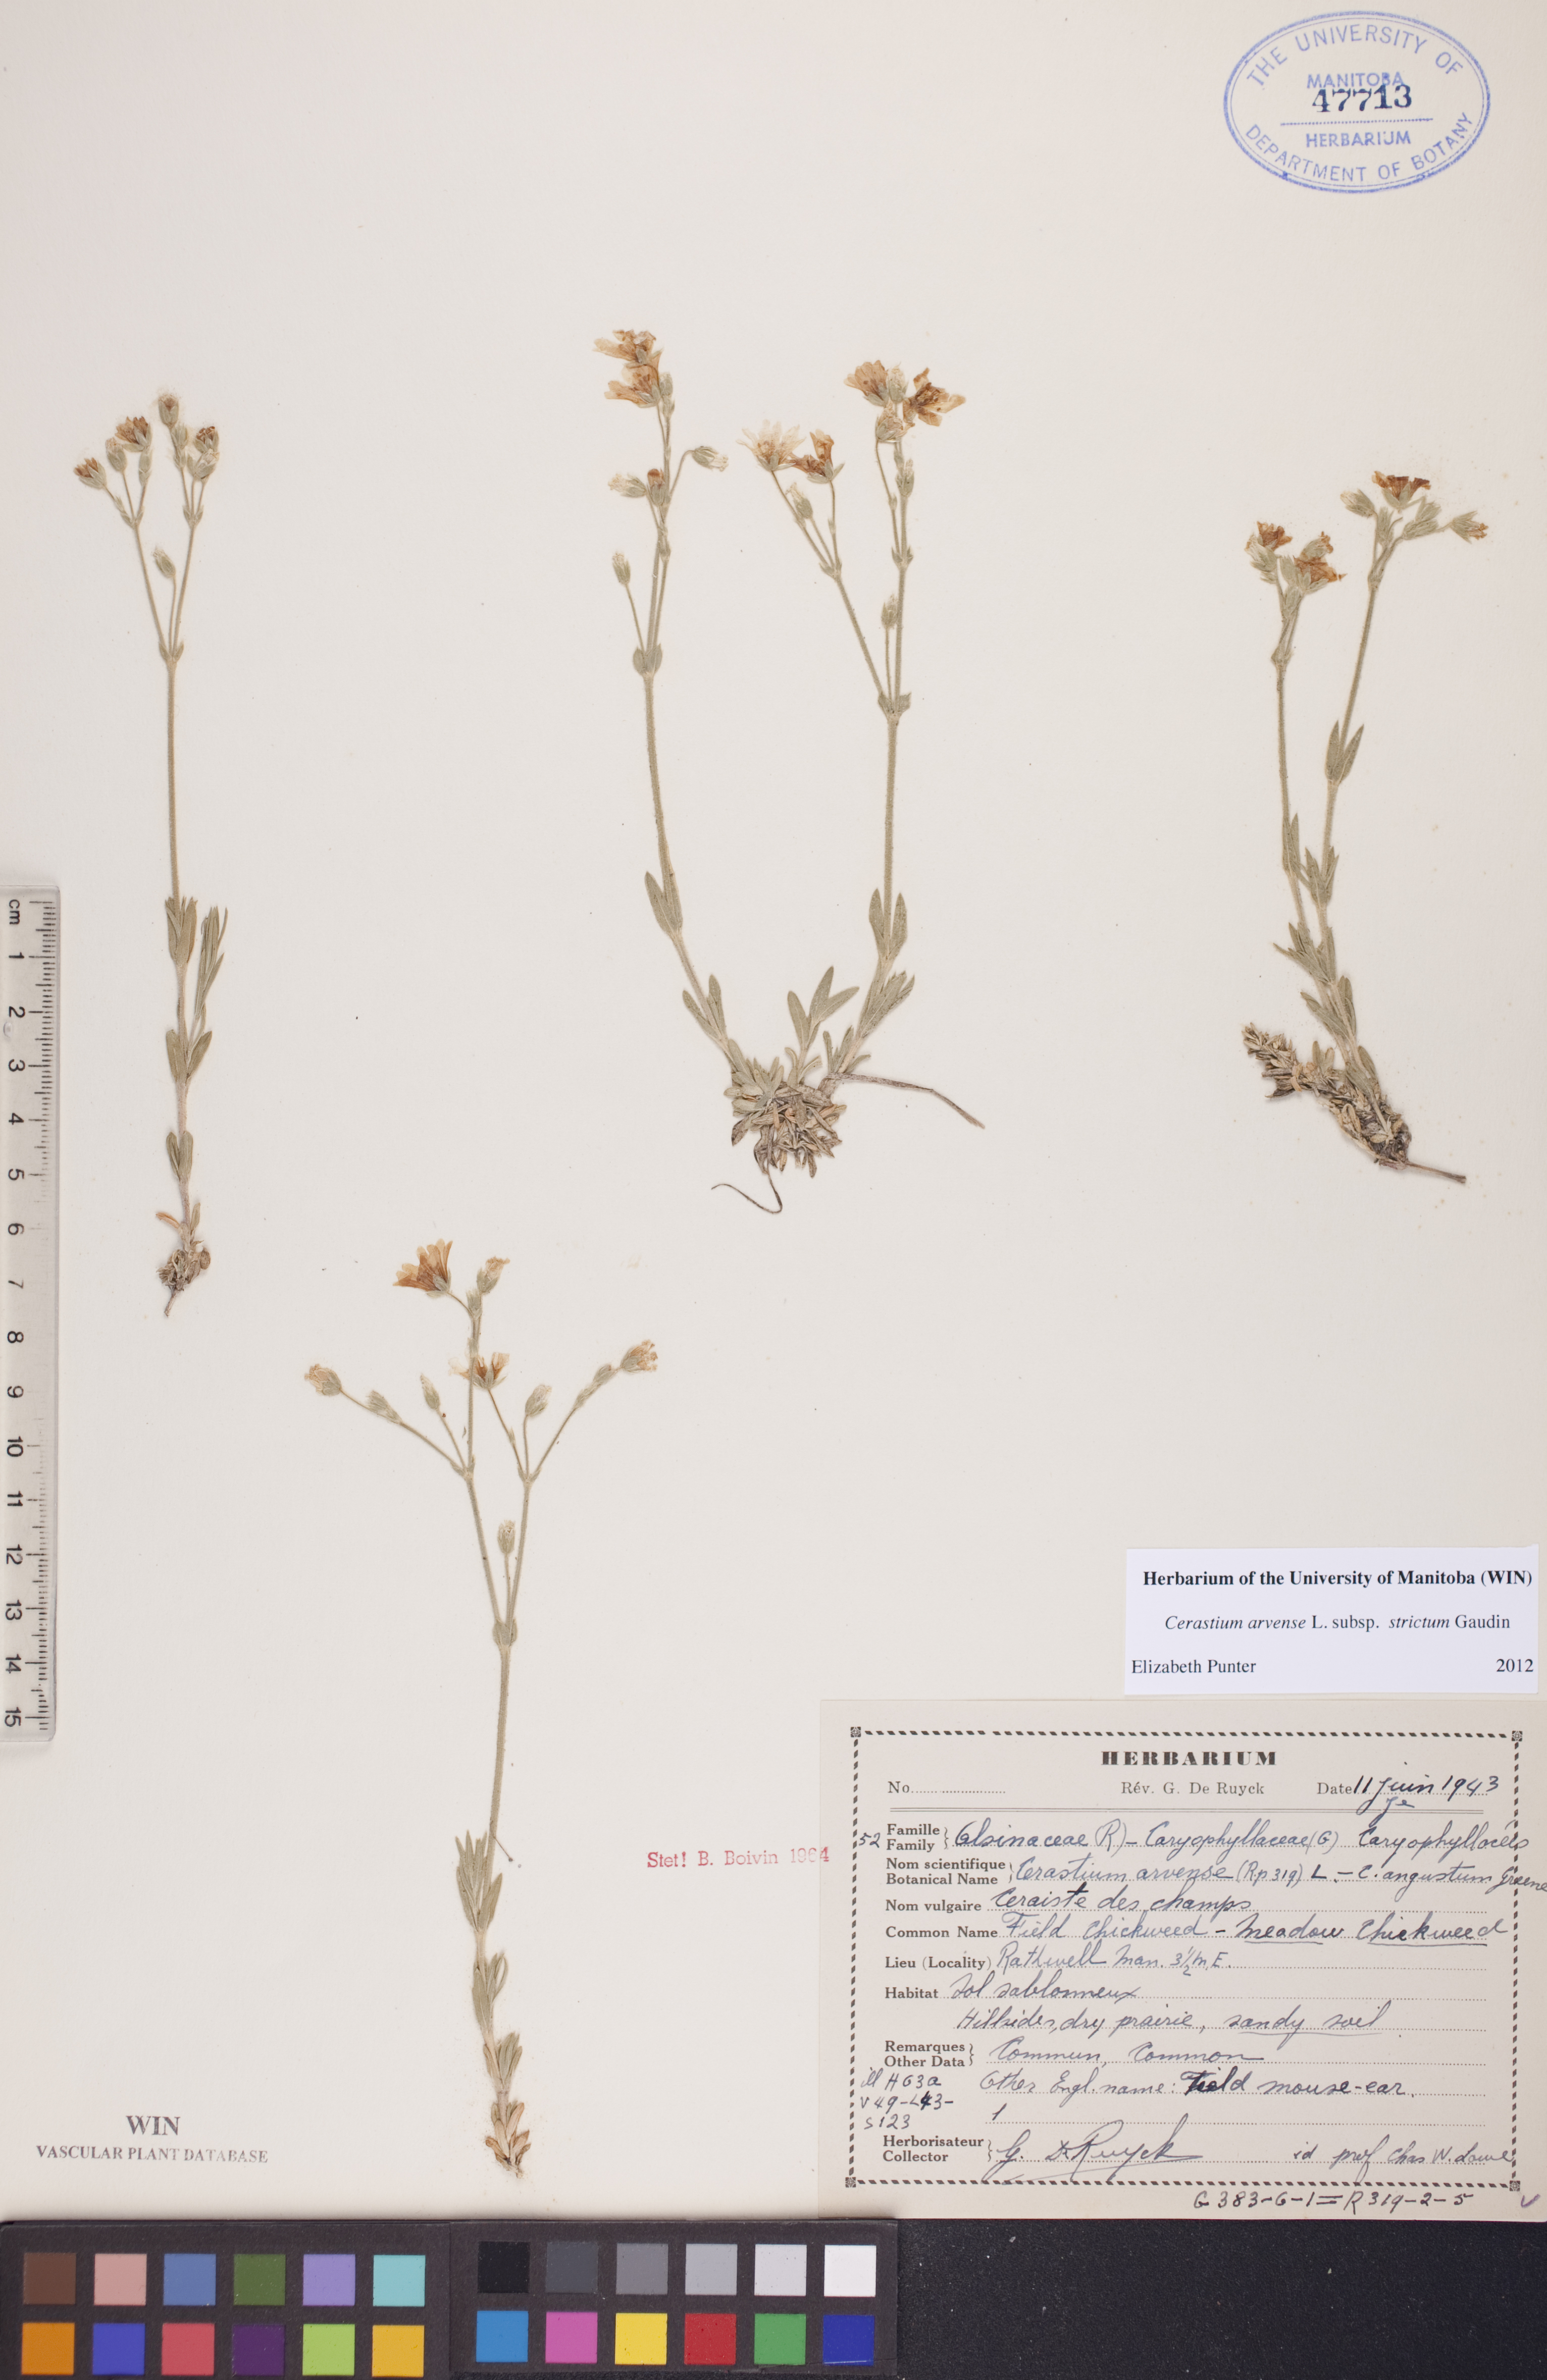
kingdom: Plantae
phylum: Tracheophyta
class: Magnoliopsida
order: Caryophyllales
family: Caryophyllaceae
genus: Cerastium
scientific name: Cerastium elongatum
